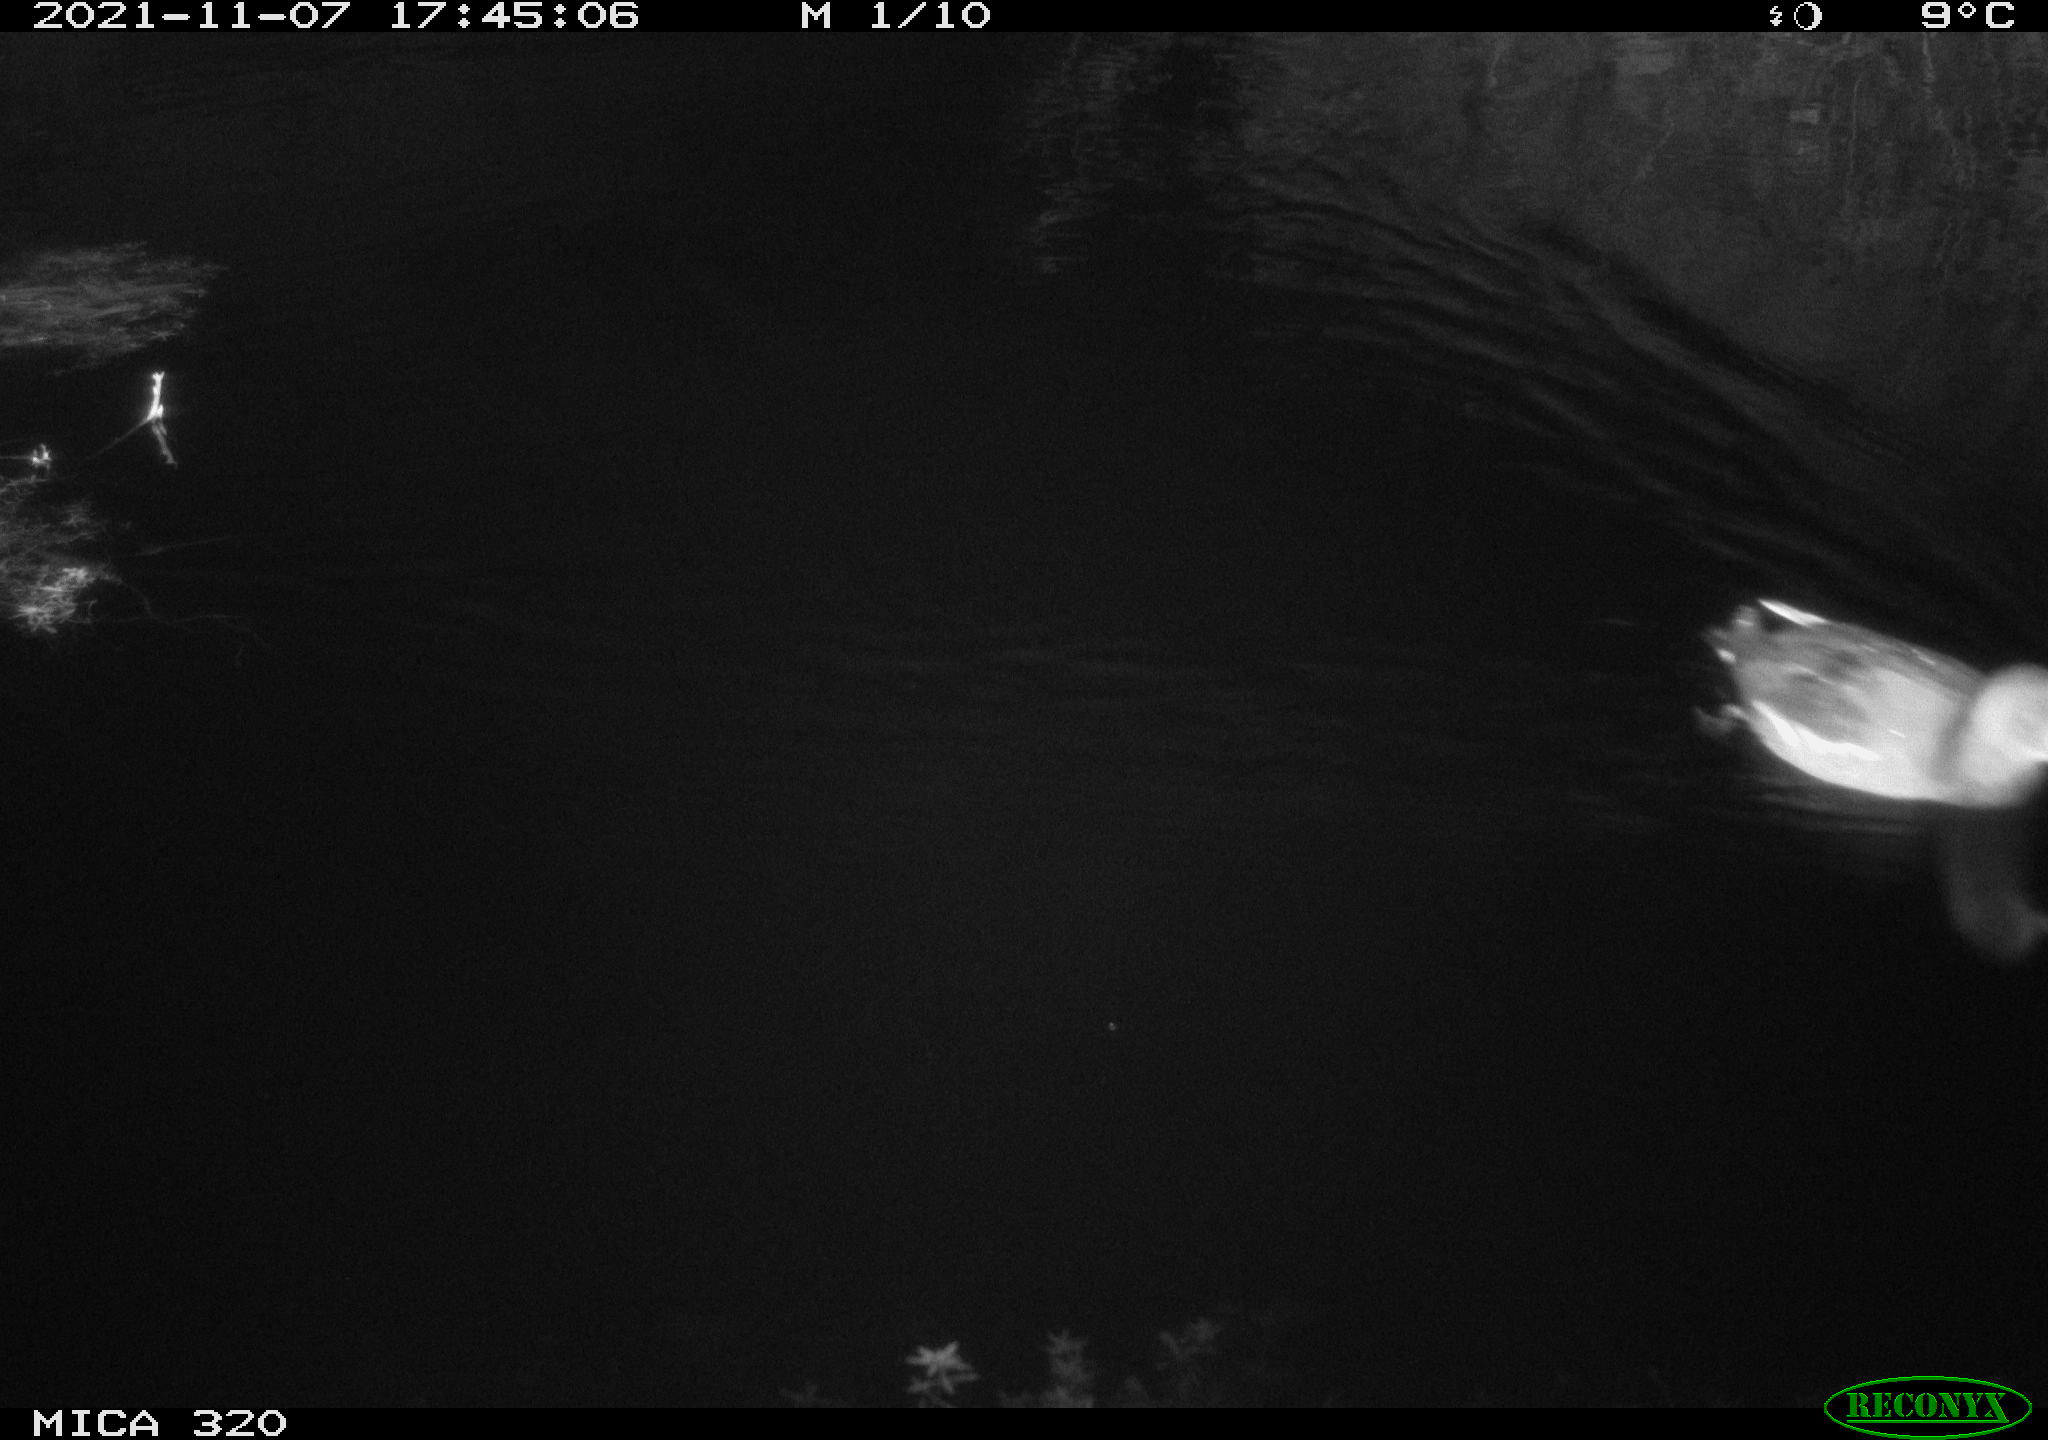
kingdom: Animalia
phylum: Chordata
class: Aves
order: Gruiformes
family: Rallidae
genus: Gallinula
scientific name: Gallinula chloropus
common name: Common moorhen
